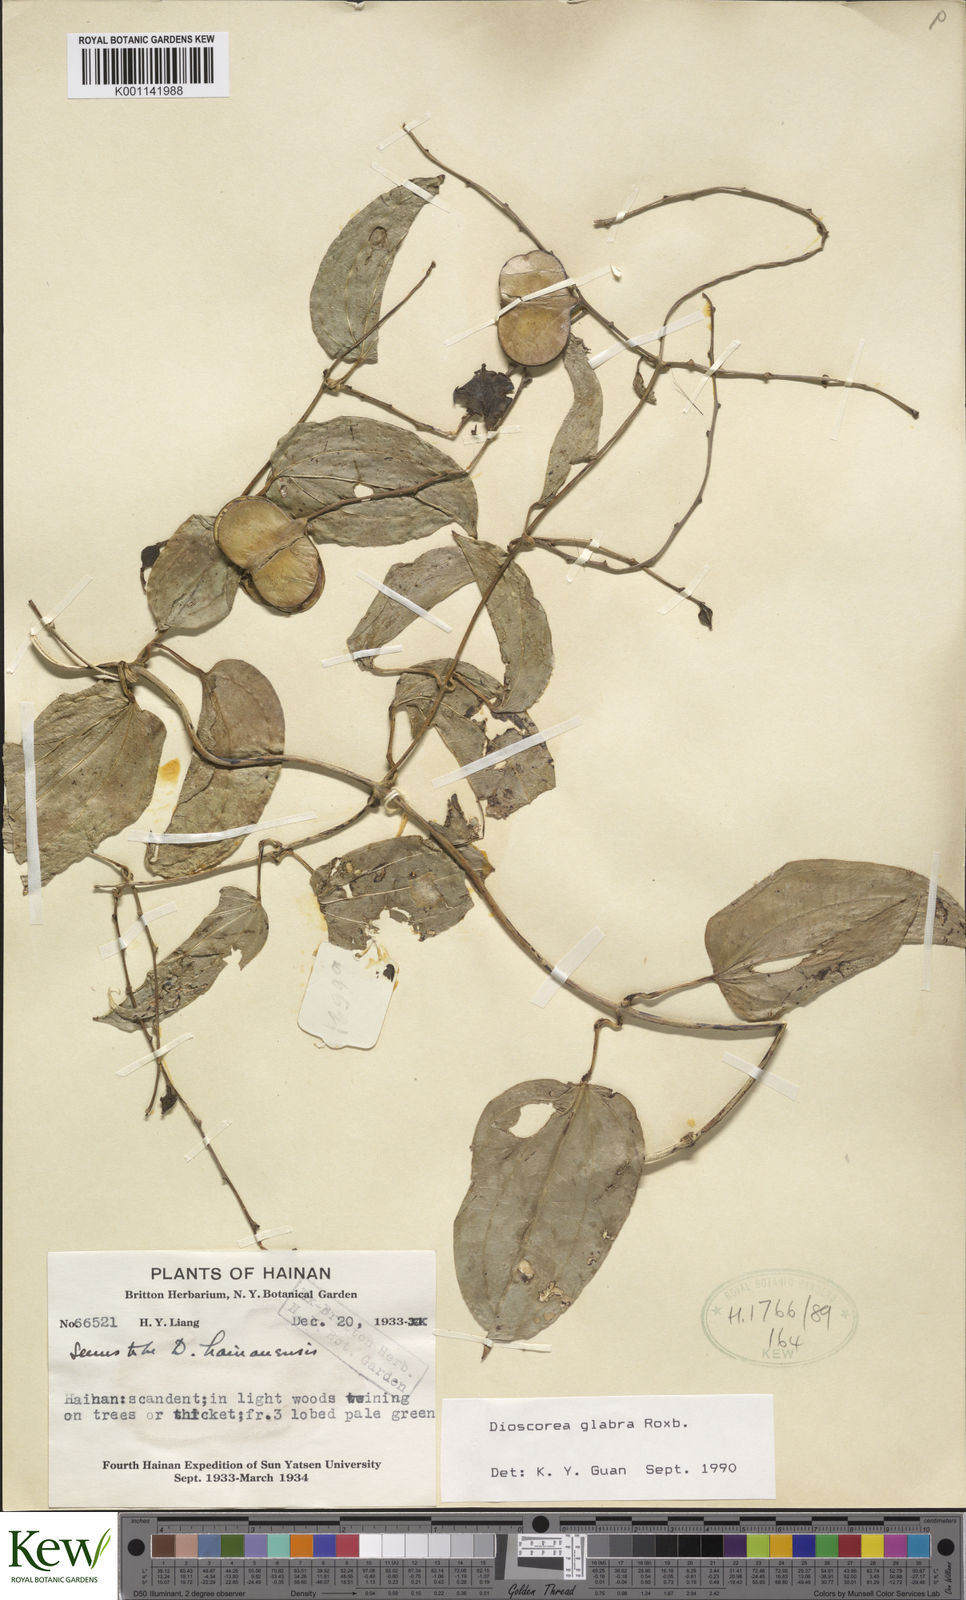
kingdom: Plantae
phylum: Tracheophyta
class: Liliopsida
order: Dioscoreales
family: Dioscoreaceae
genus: Dioscorea
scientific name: Dioscorea glabra
